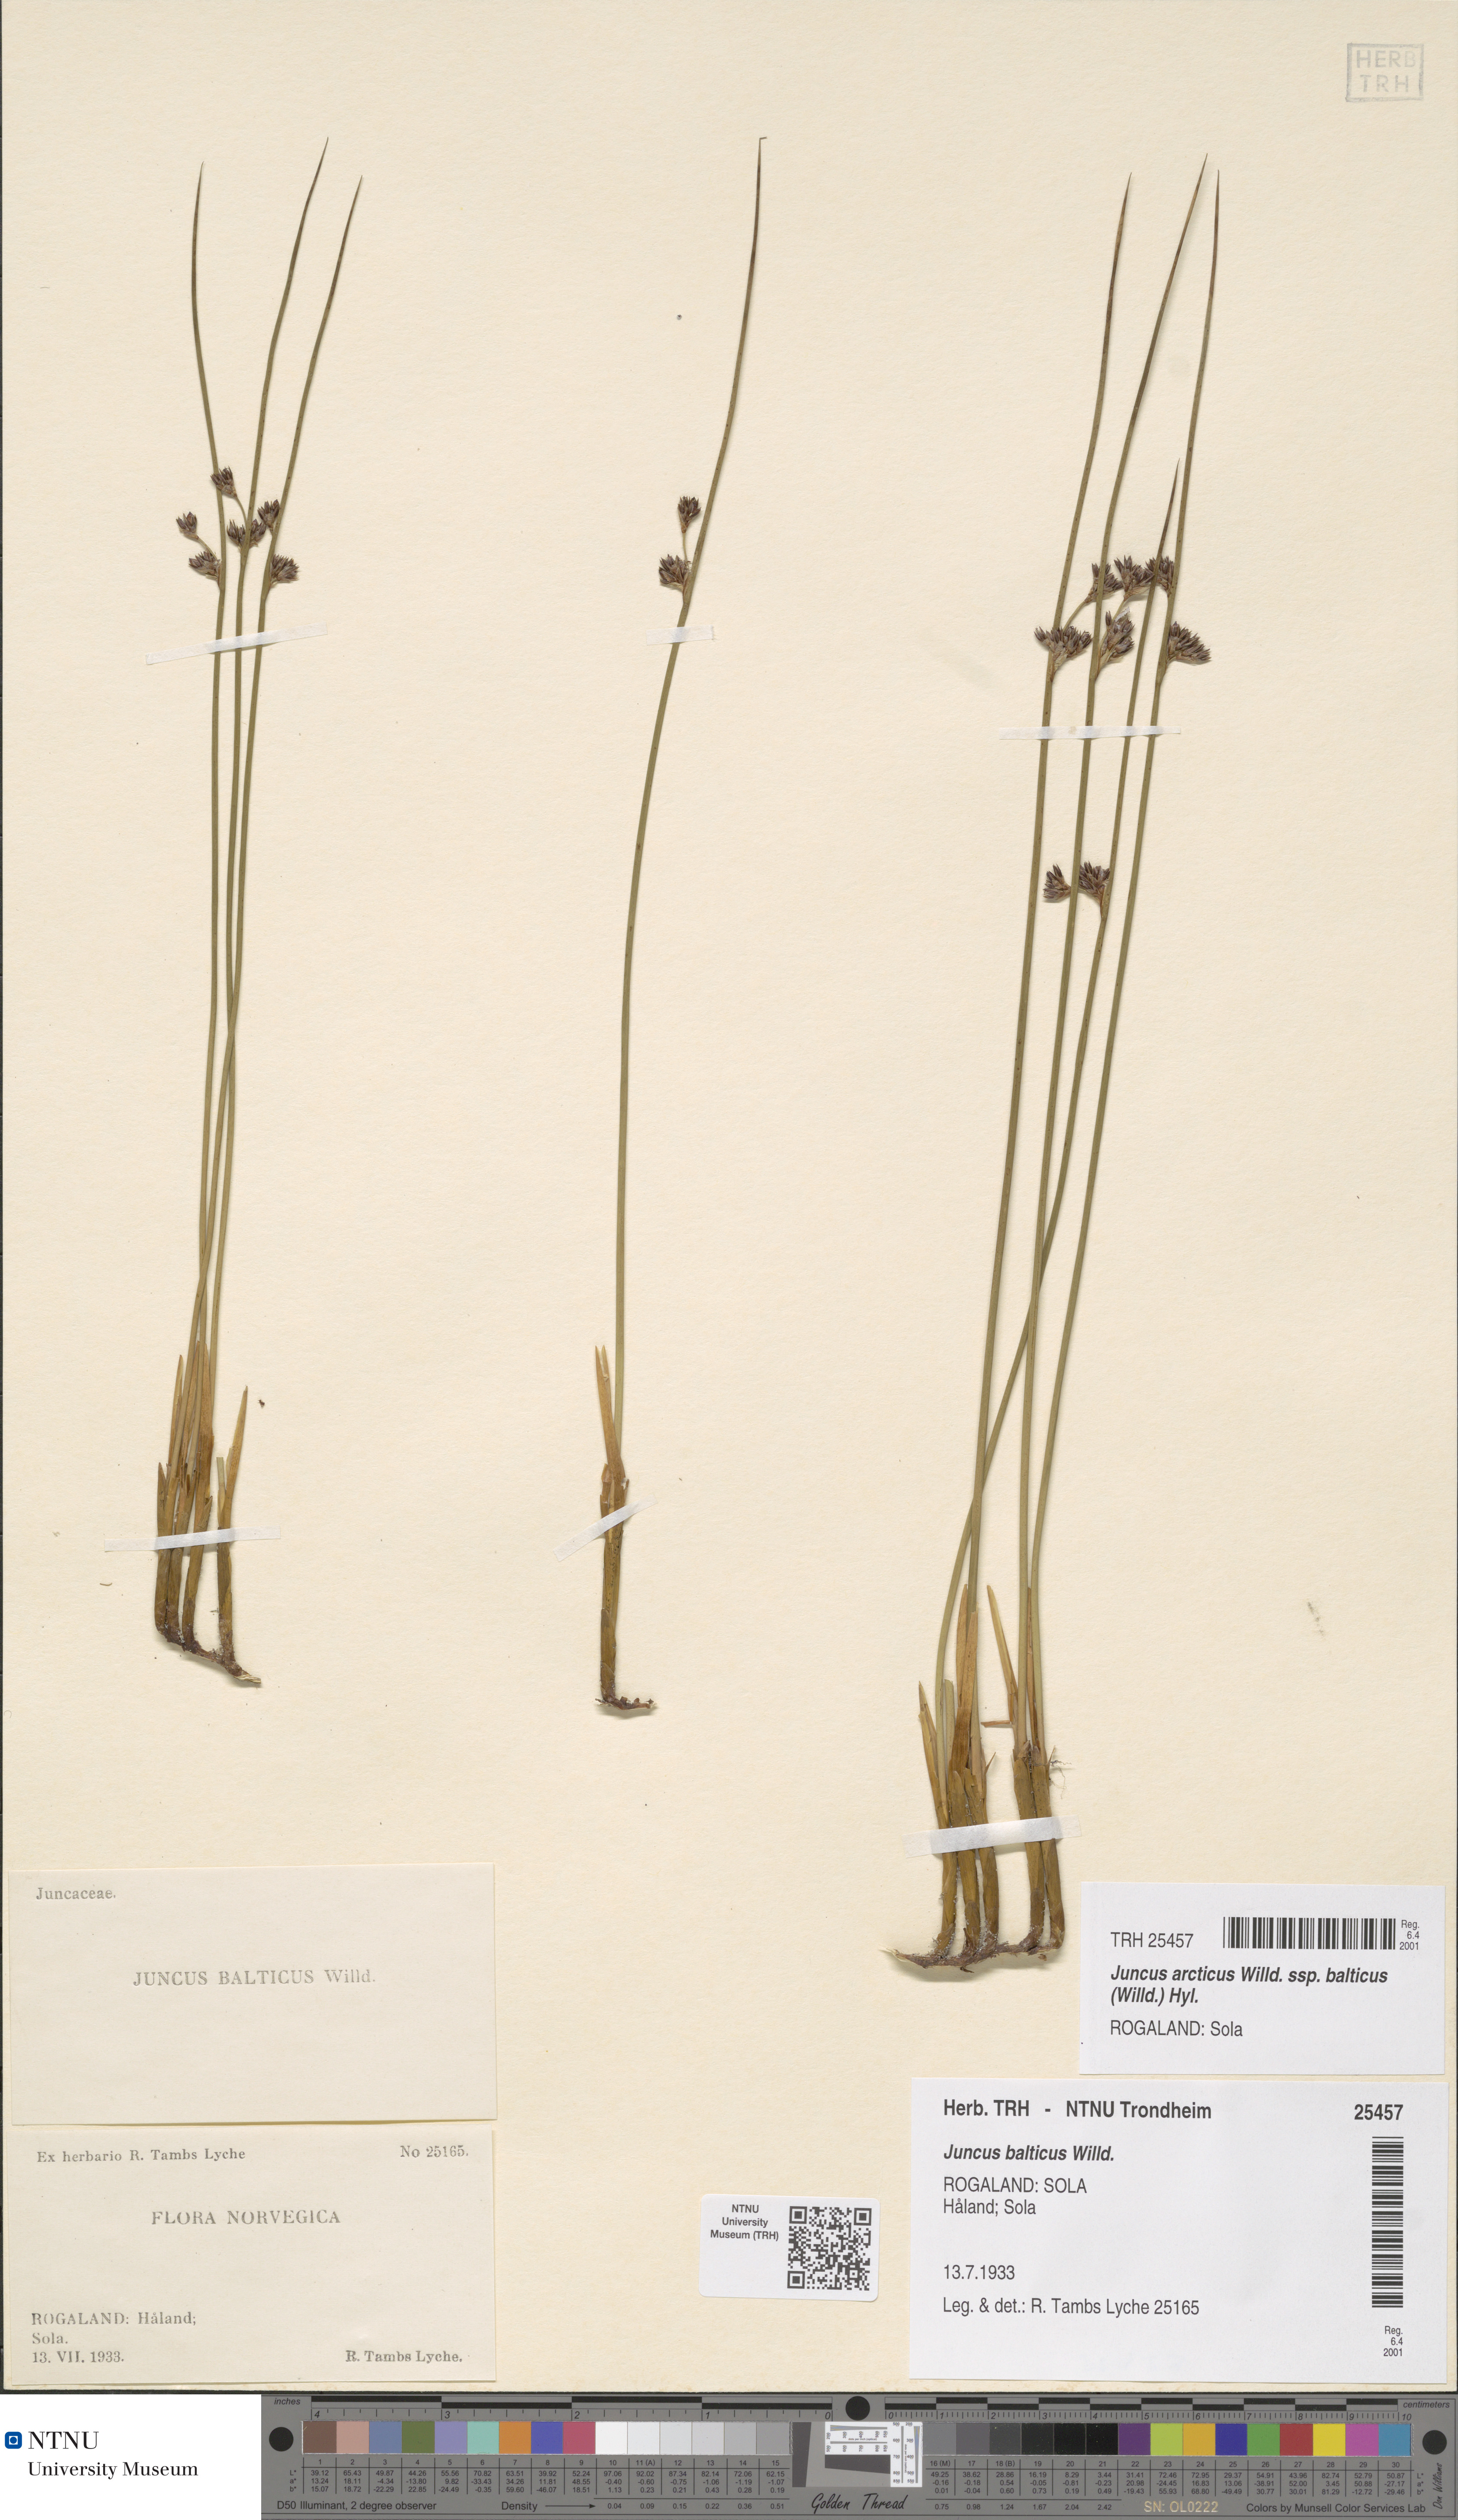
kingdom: Plantae
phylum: Tracheophyta
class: Liliopsida
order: Poales
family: Juncaceae
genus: Juncus
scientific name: Juncus balticus
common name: Baltic rush
